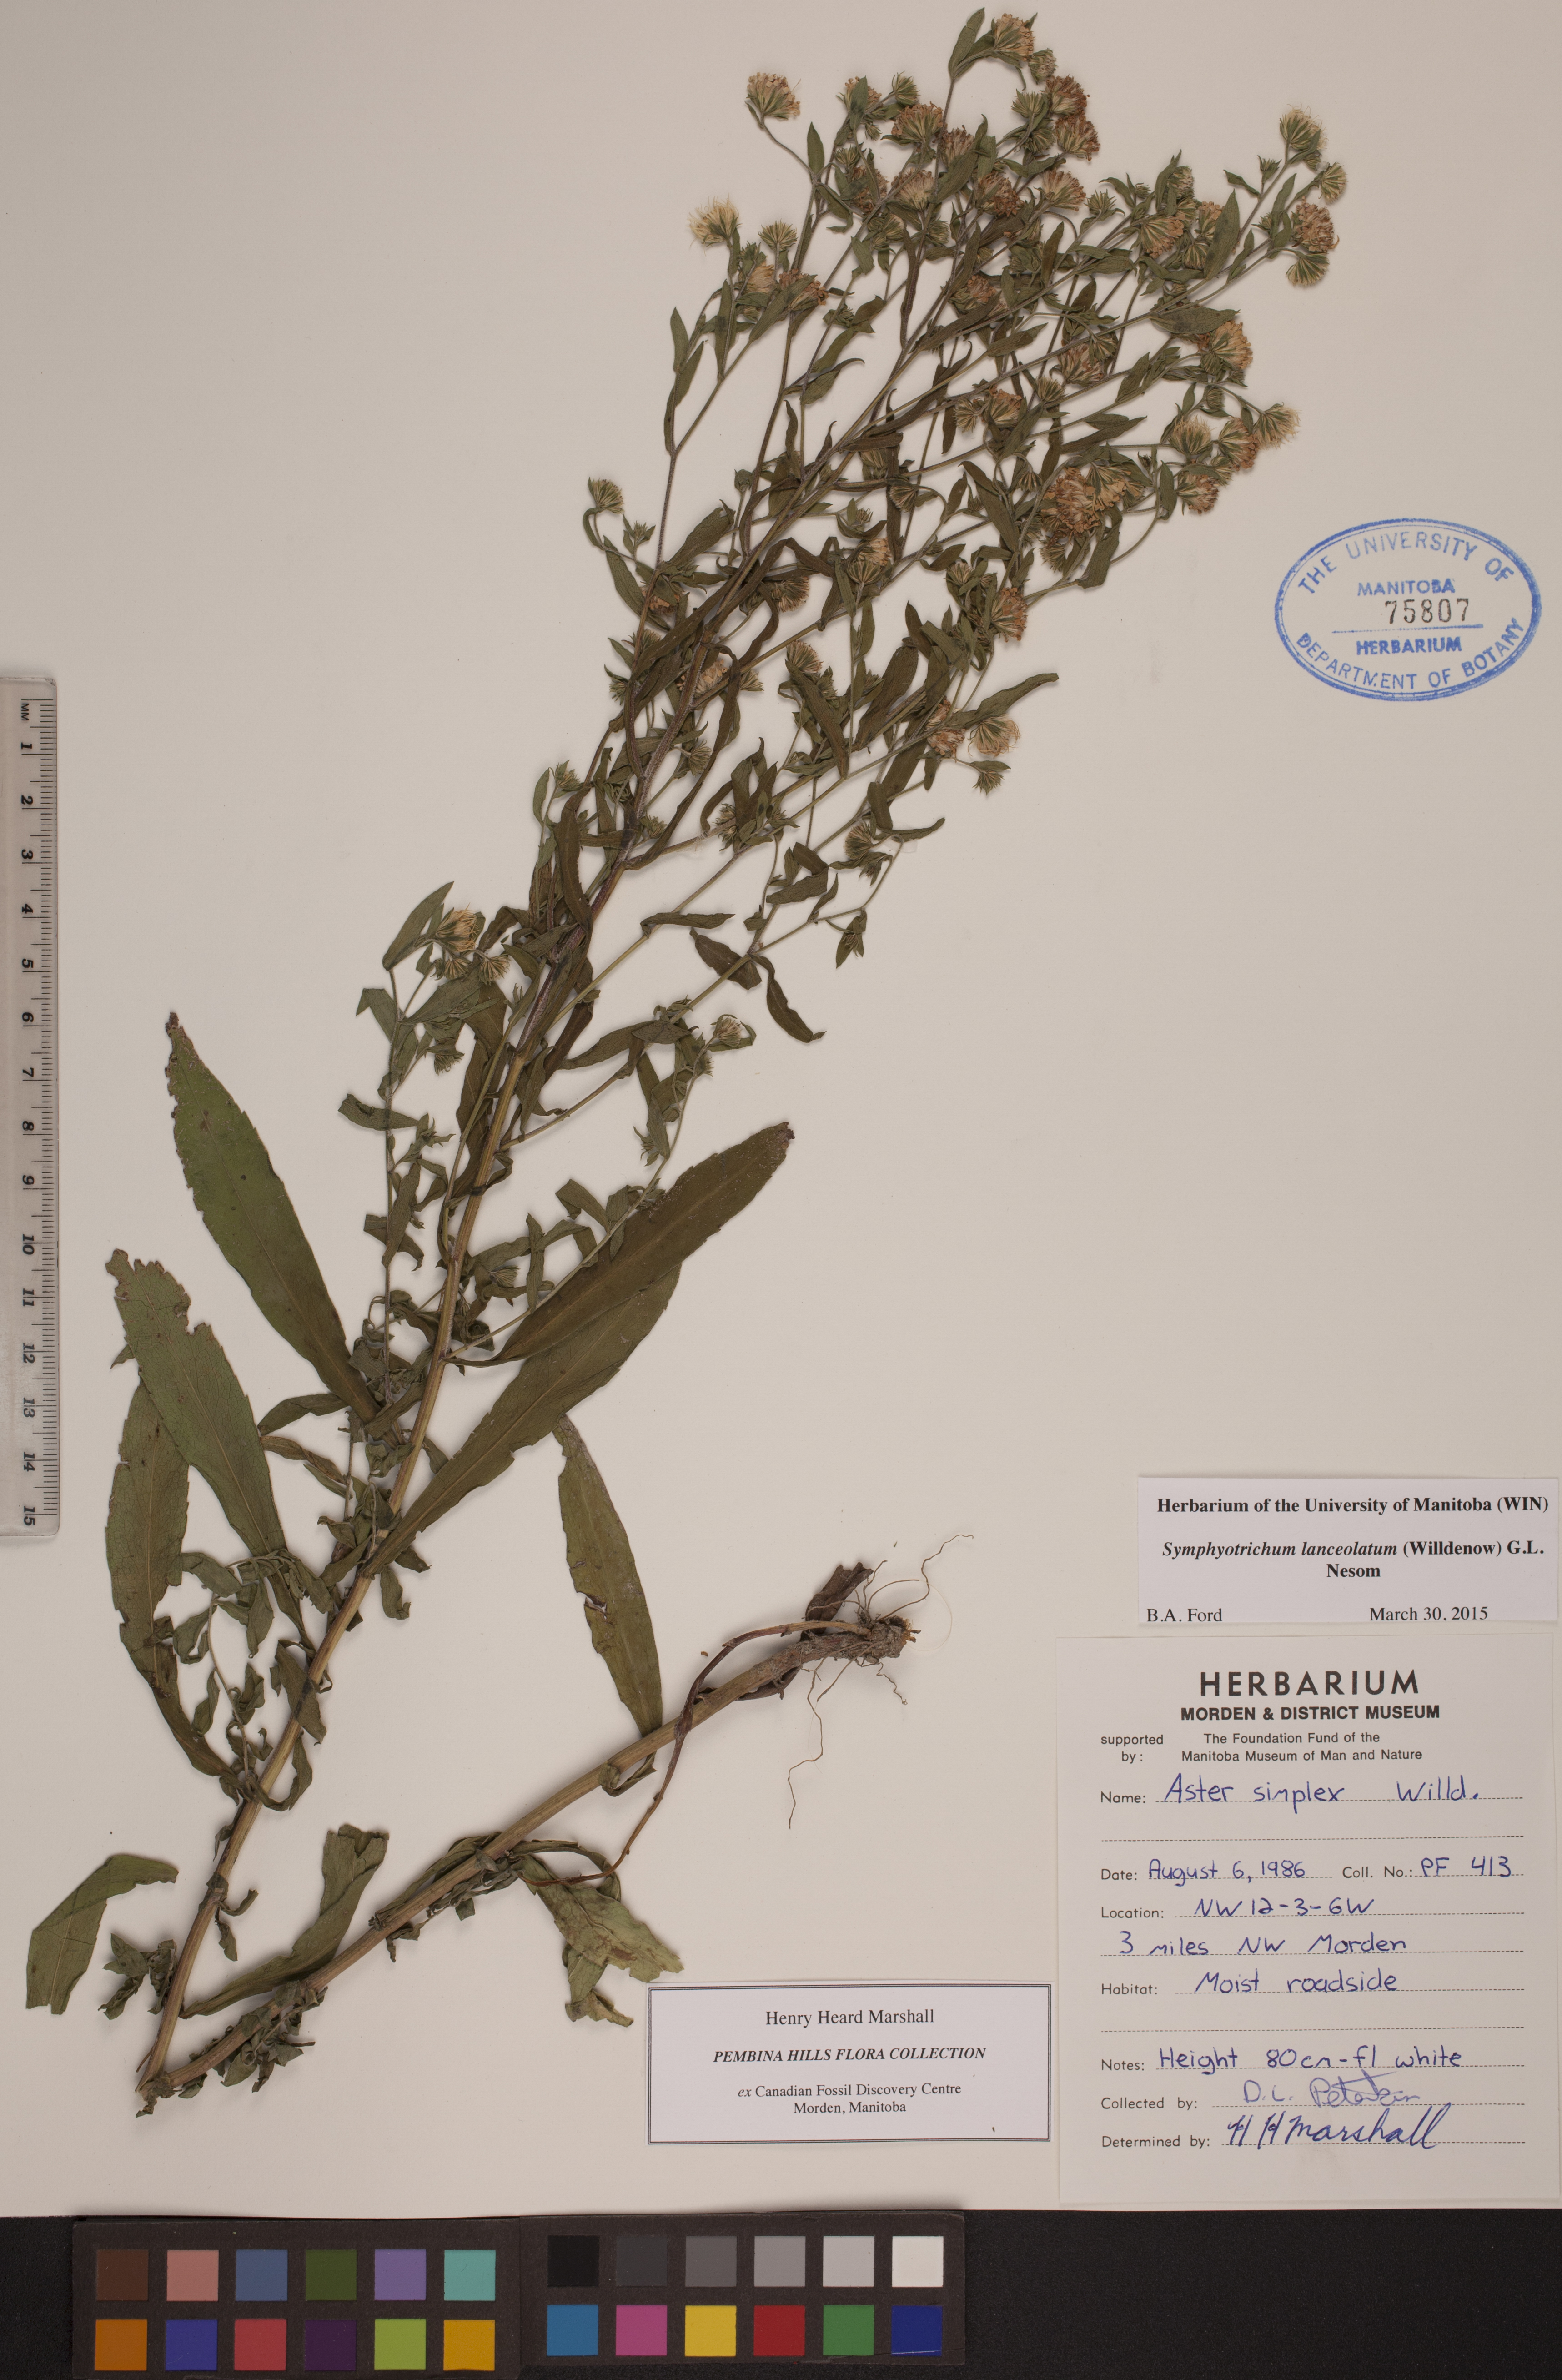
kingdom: Plantae
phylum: Tracheophyta
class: Magnoliopsida
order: Asterales
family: Asteraceae
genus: Symphyotrichum
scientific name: Symphyotrichum lanceolatum
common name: Panicled aster
